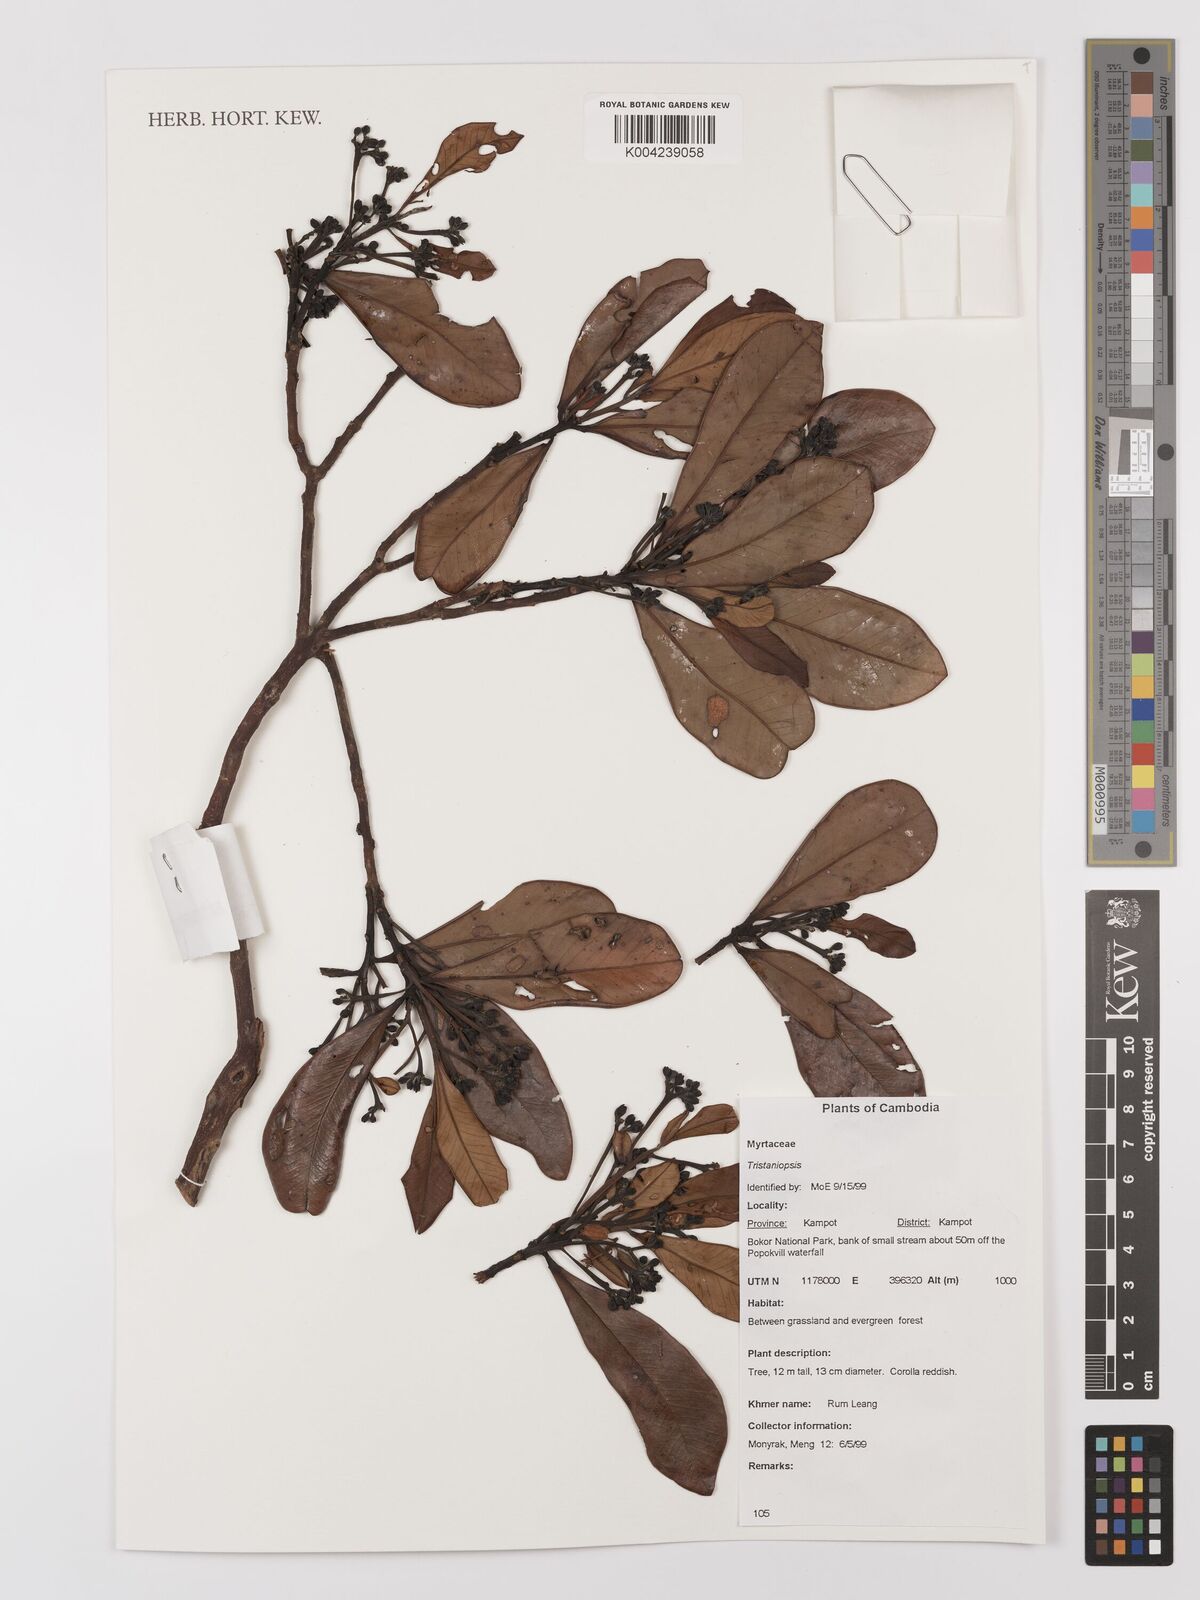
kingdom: Plantae
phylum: Tracheophyta
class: Magnoliopsida
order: Myrtales
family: Myrtaceae
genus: Tristaniopsis
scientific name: Tristaniopsis
